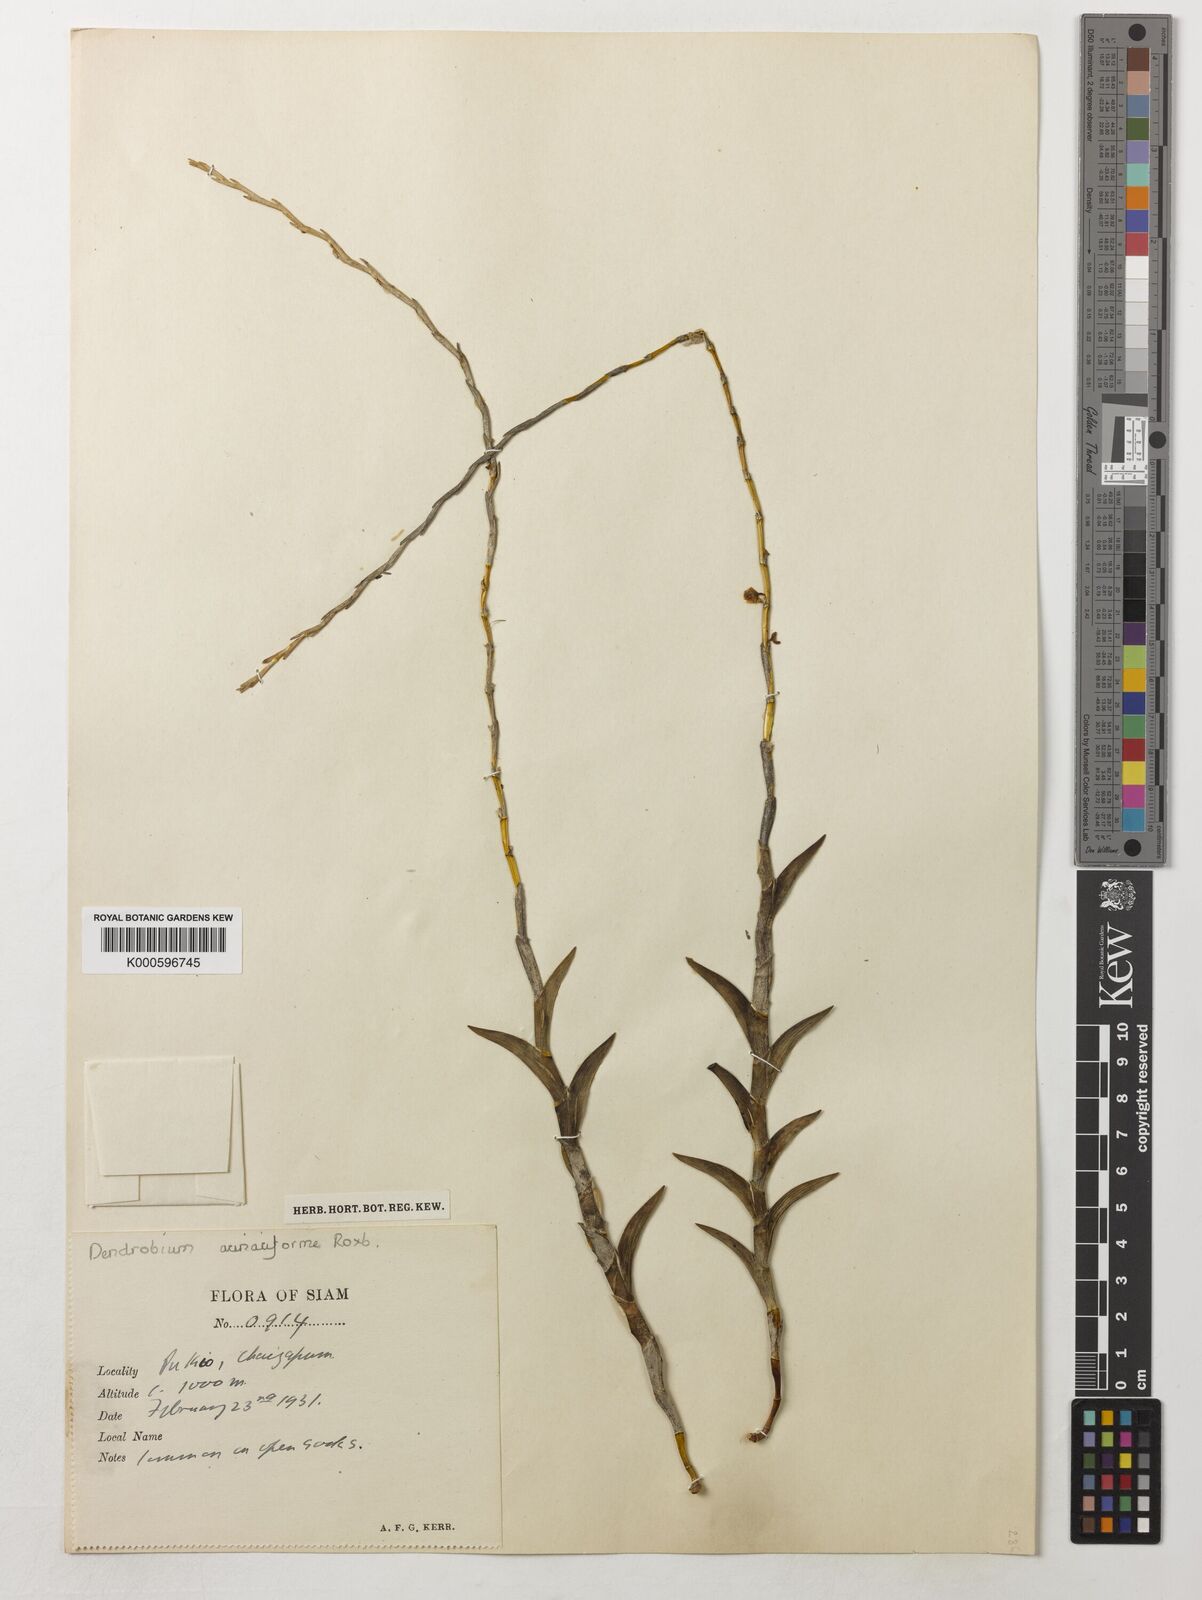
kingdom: Plantae
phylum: Tracheophyta
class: Liliopsida
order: Asparagales
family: Orchidaceae
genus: Dendrobium
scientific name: Dendrobium acinaciforme
